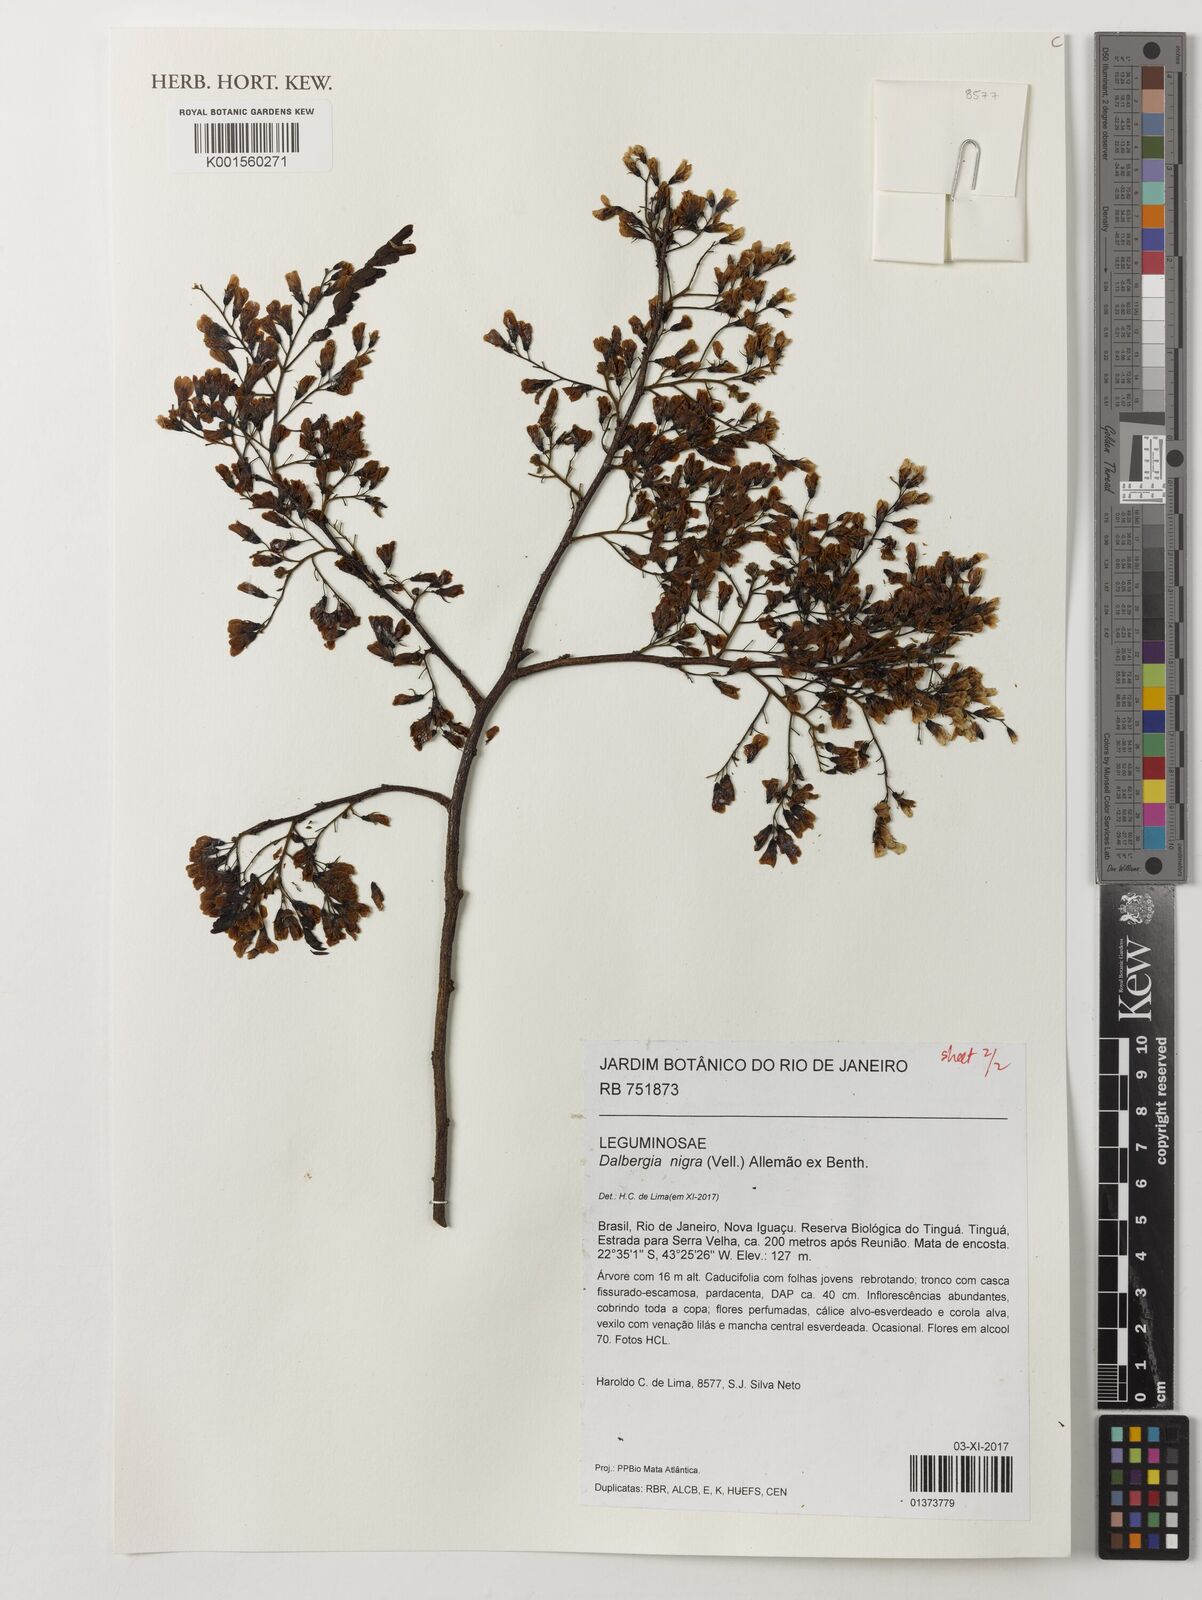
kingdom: Plantae
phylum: Tracheophyta
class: Magnoliopsida
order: Fabales
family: Fabaceae
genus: Dalbergia
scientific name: Dalbergia nigra
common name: Bahia rosewood
